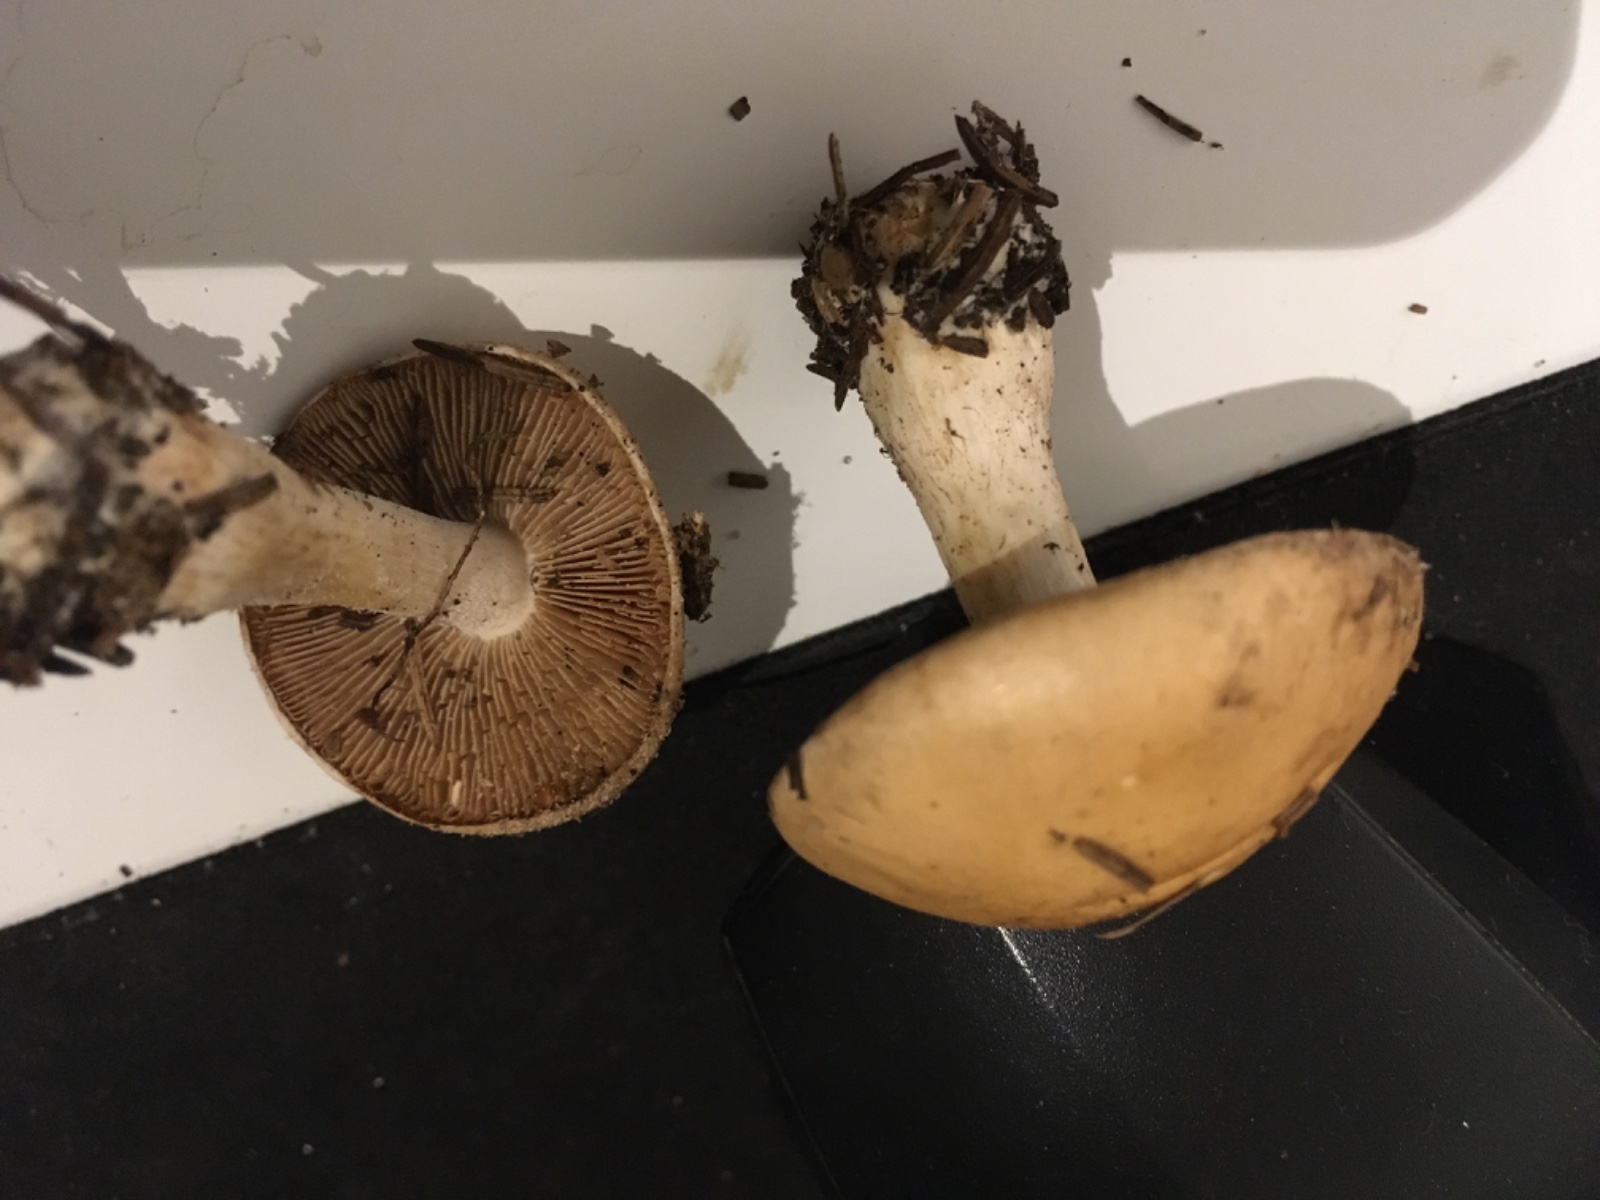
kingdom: Fungi
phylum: Basidiomycota
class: Agaricomycetes
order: Agaricales
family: Hymenogastraceae
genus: Hebeloma
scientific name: Hebeloma
